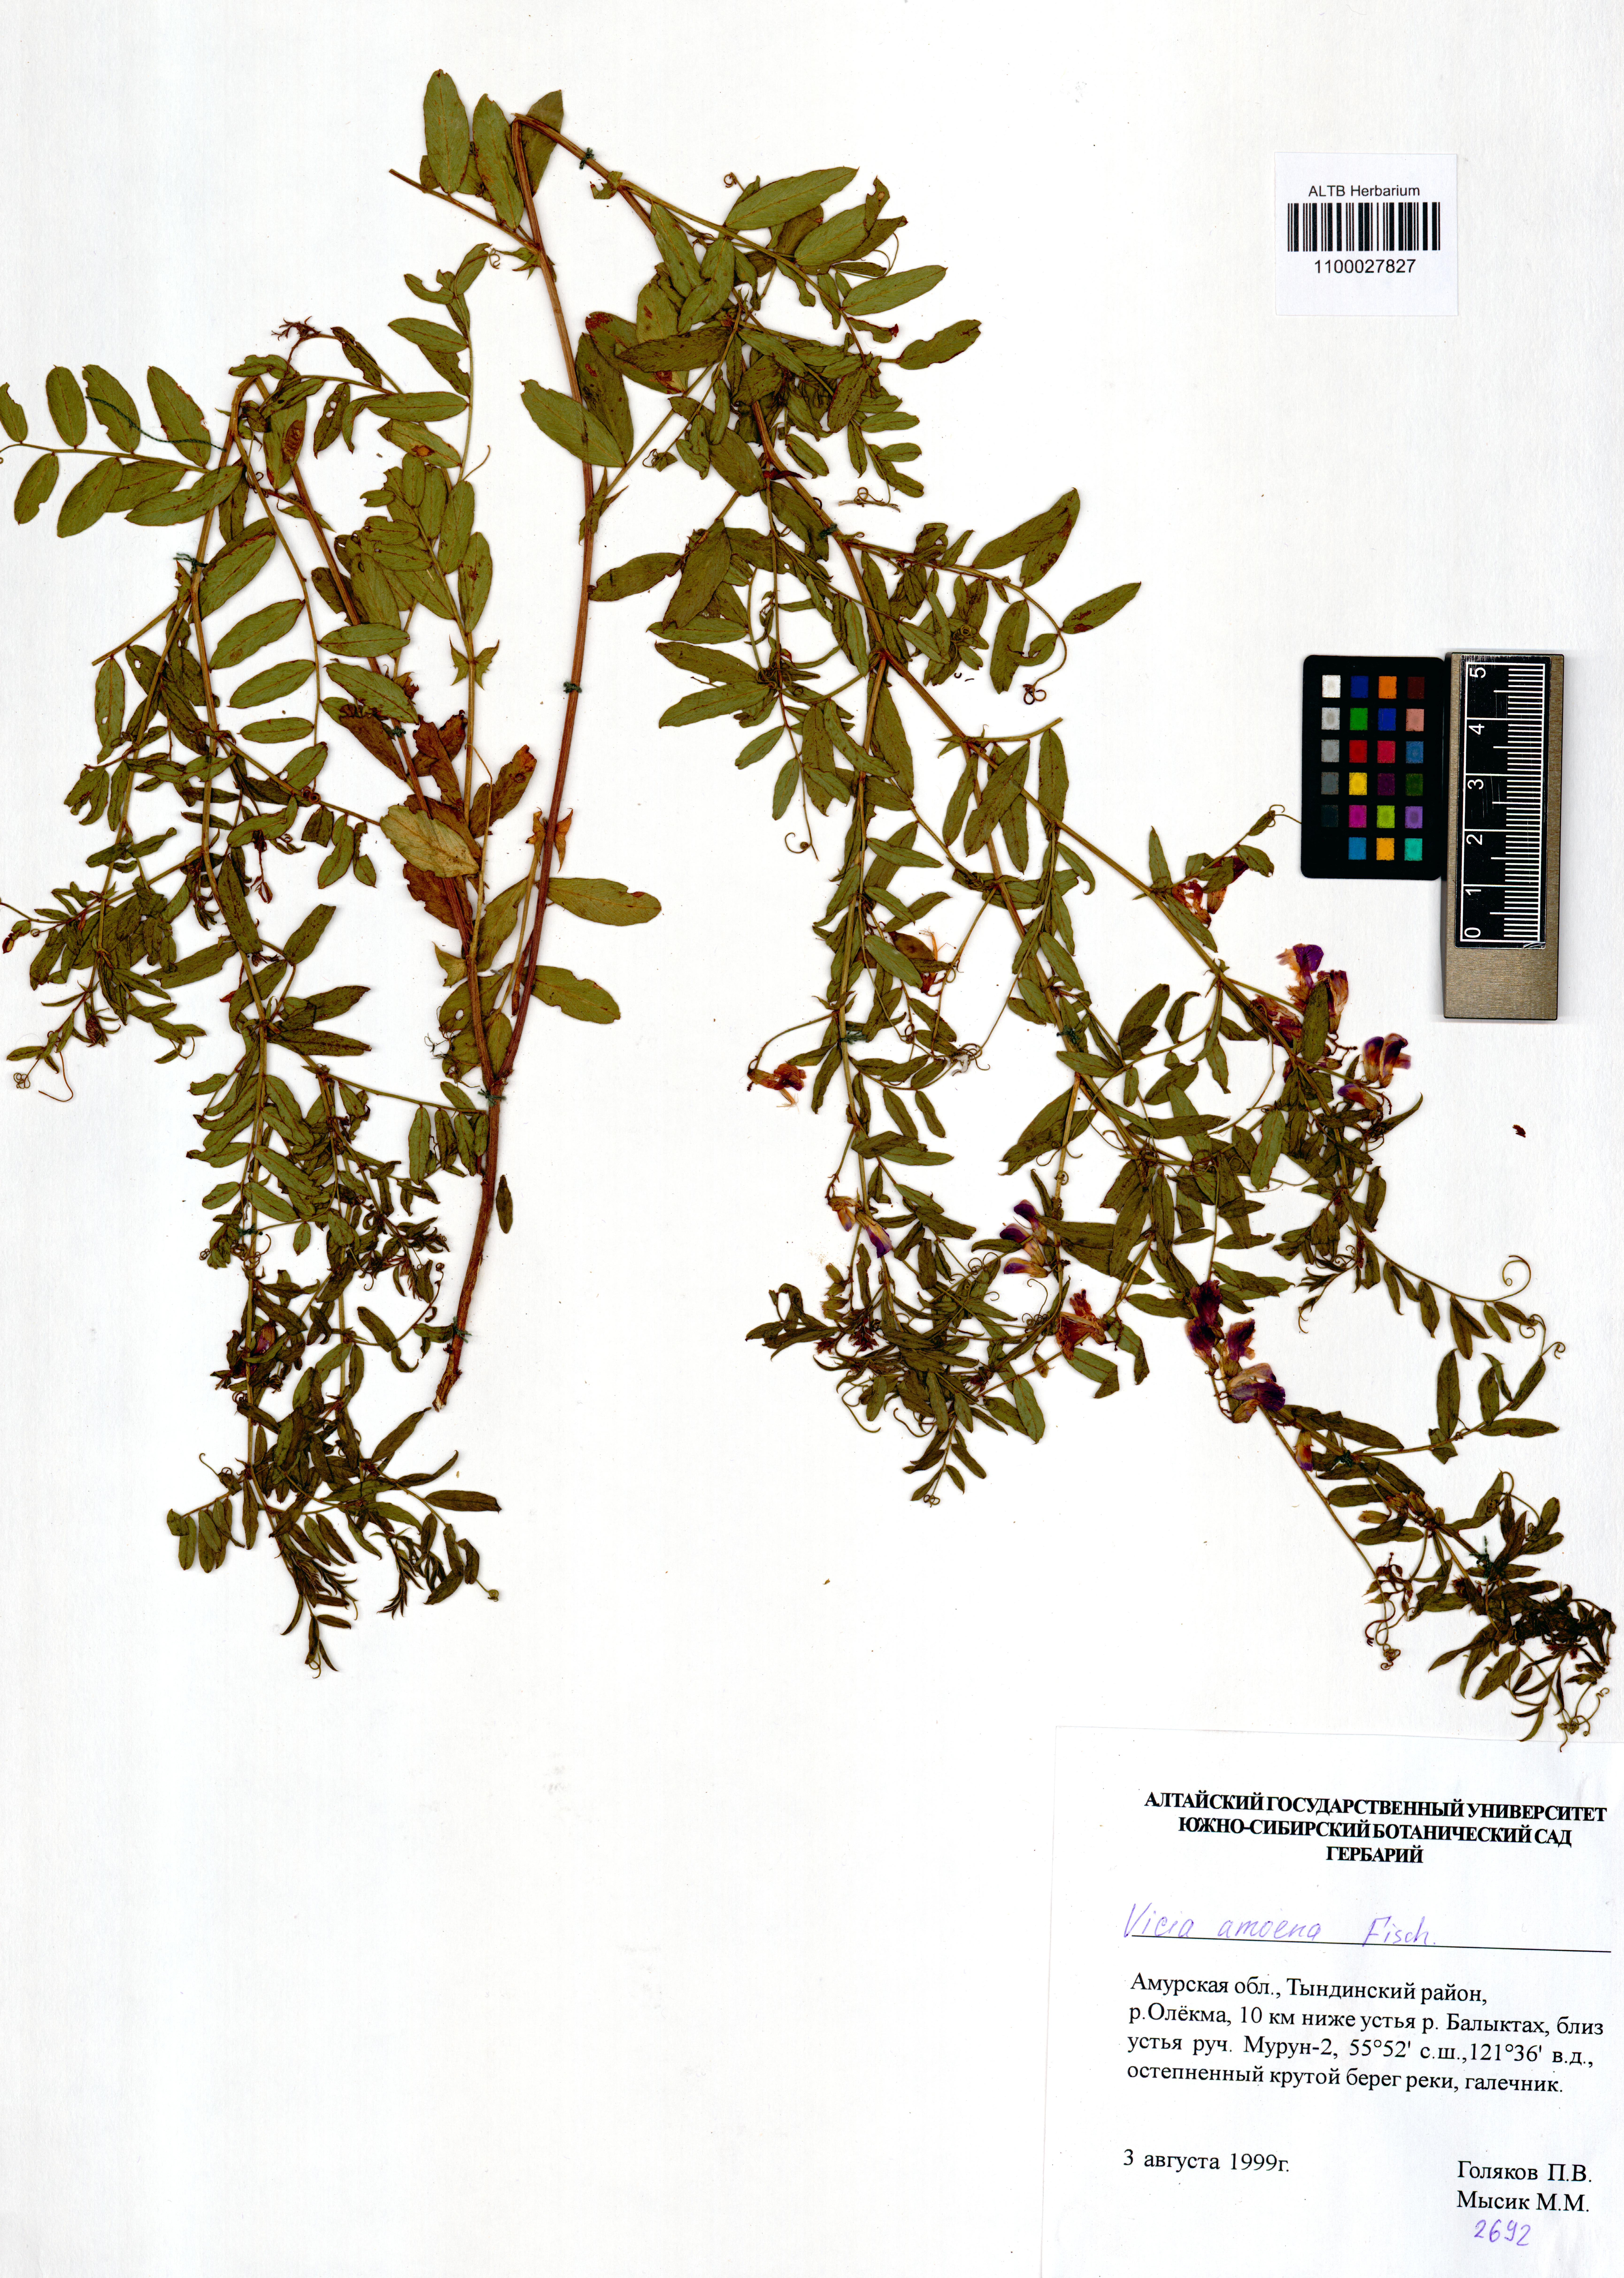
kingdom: Plantae
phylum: Tracheophyta
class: Magnoliopsida
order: Fabales
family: Fabaceae
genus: Vicia
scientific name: Vicia amoena
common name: Cheder ebs
